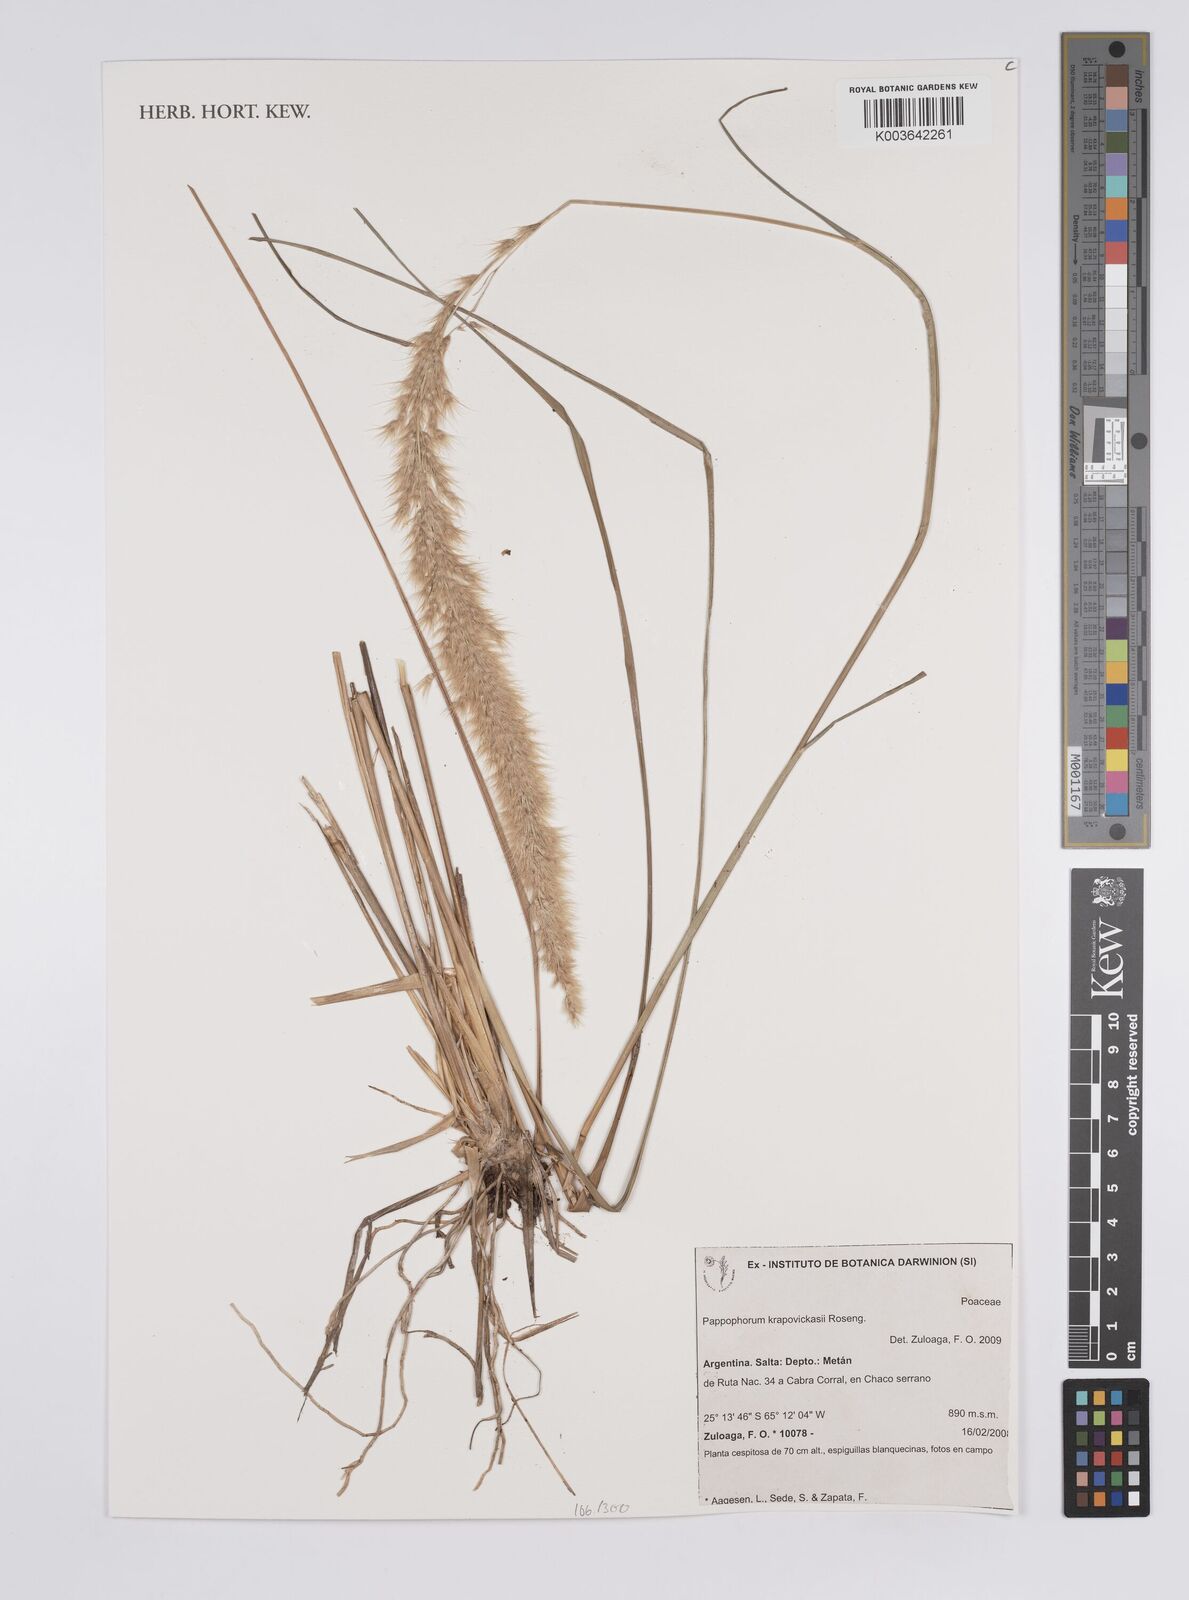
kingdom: Plantae
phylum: Tracheophyta
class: Liliopsida
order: Poales
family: Poaceae
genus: Pappophorum
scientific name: Pappophorum krapovickasii
